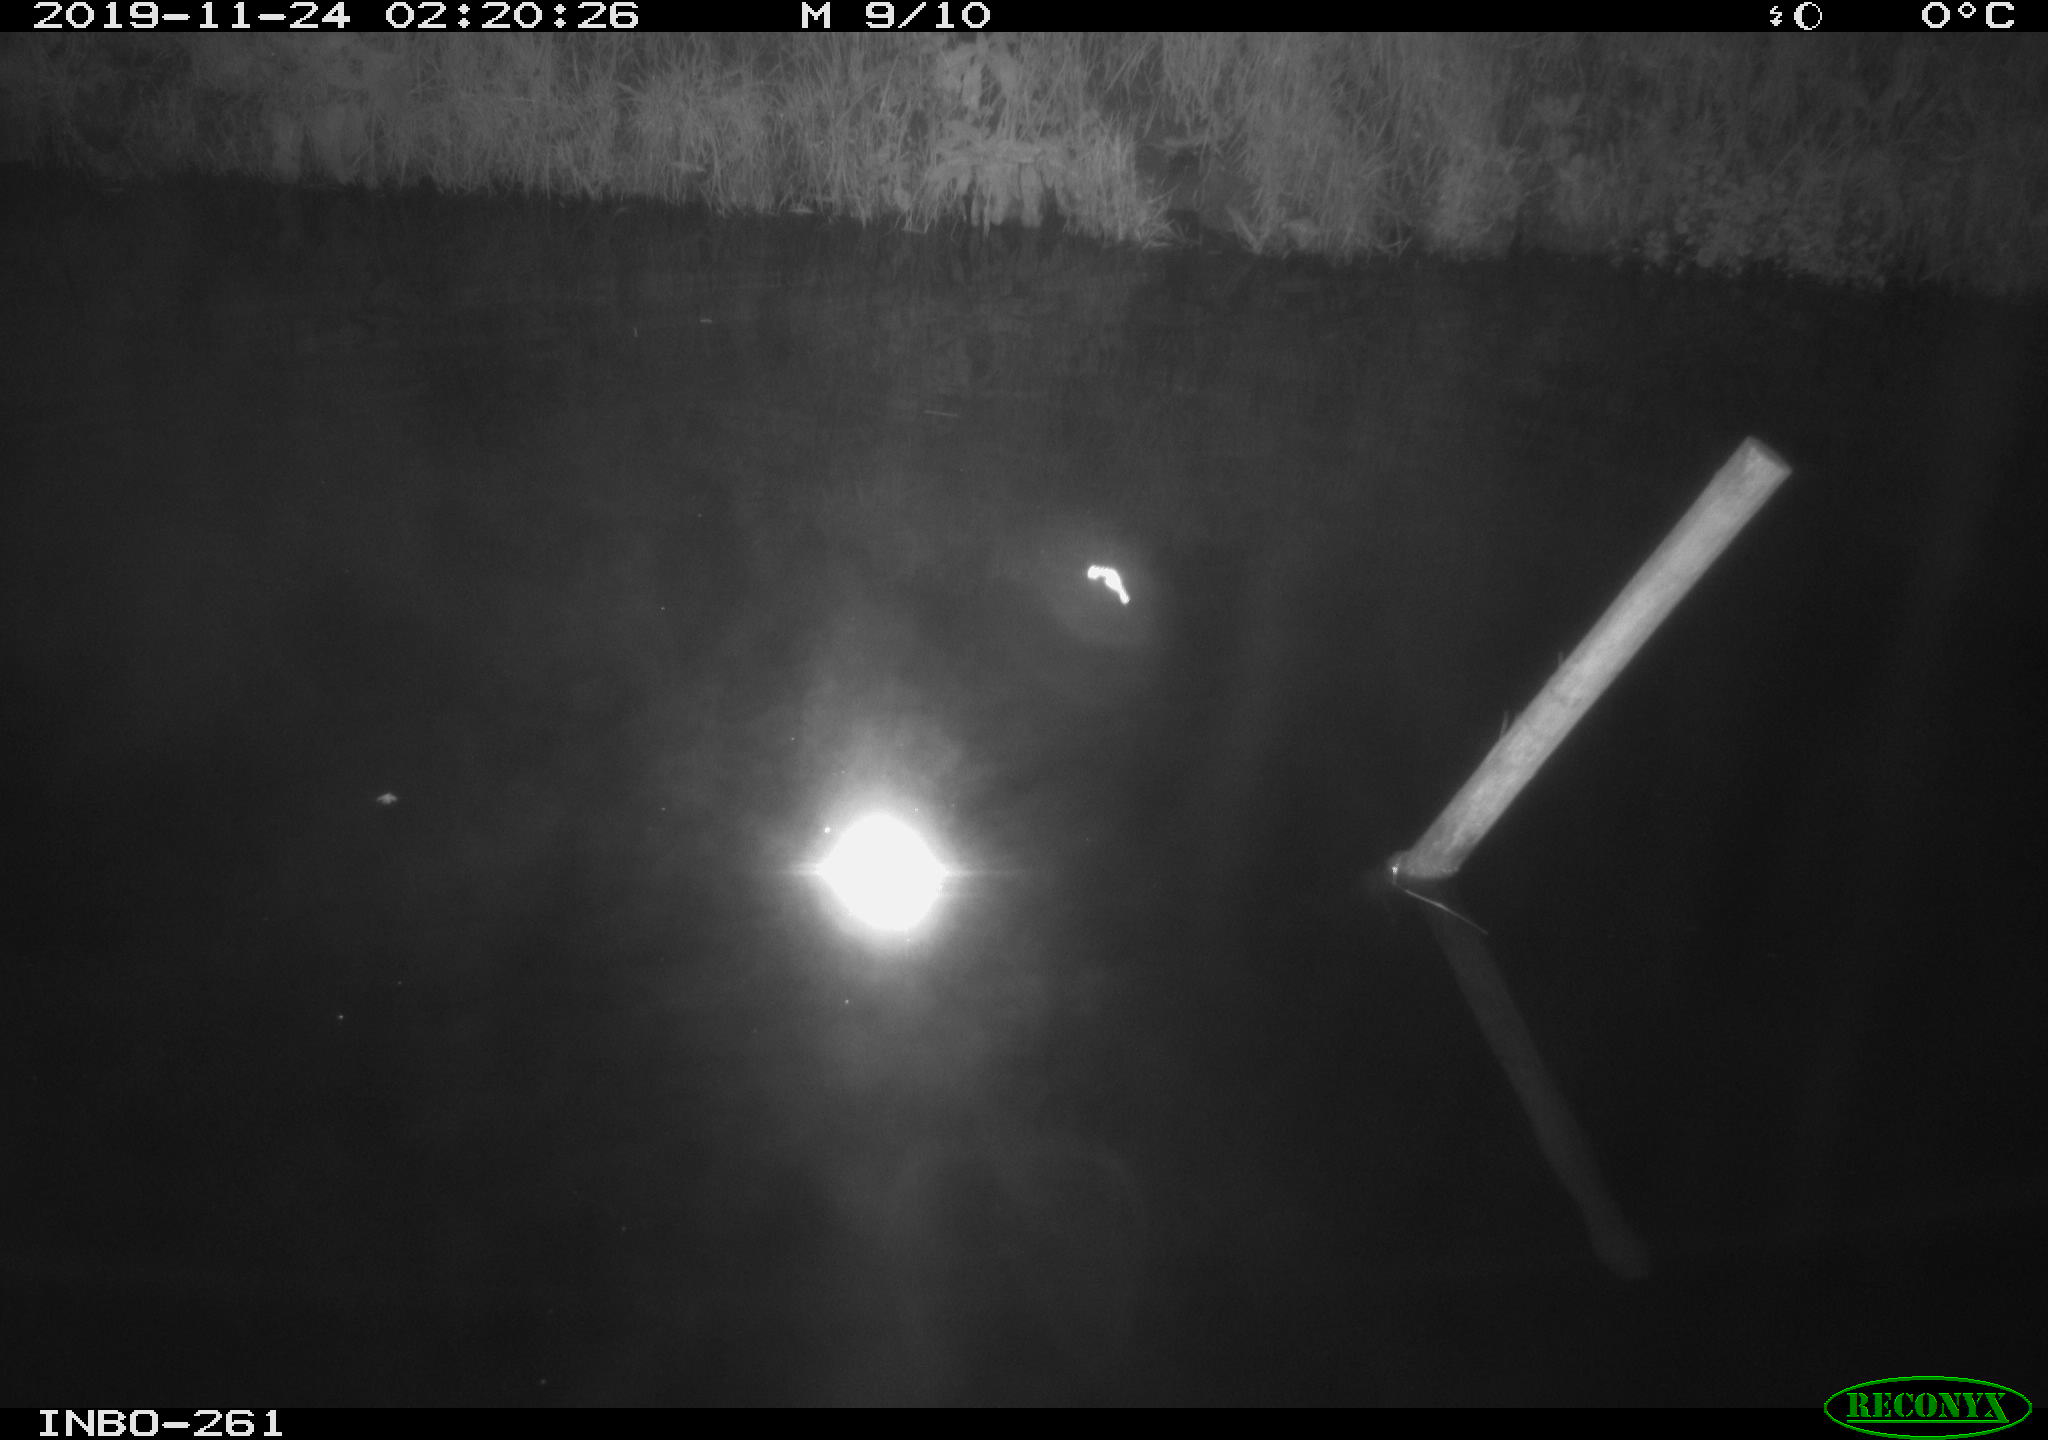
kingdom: Animalia
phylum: Chordata
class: Aves
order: Anseriformes
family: Anatidae
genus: Anas
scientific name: Anas platyrhynchos
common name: Mallard
